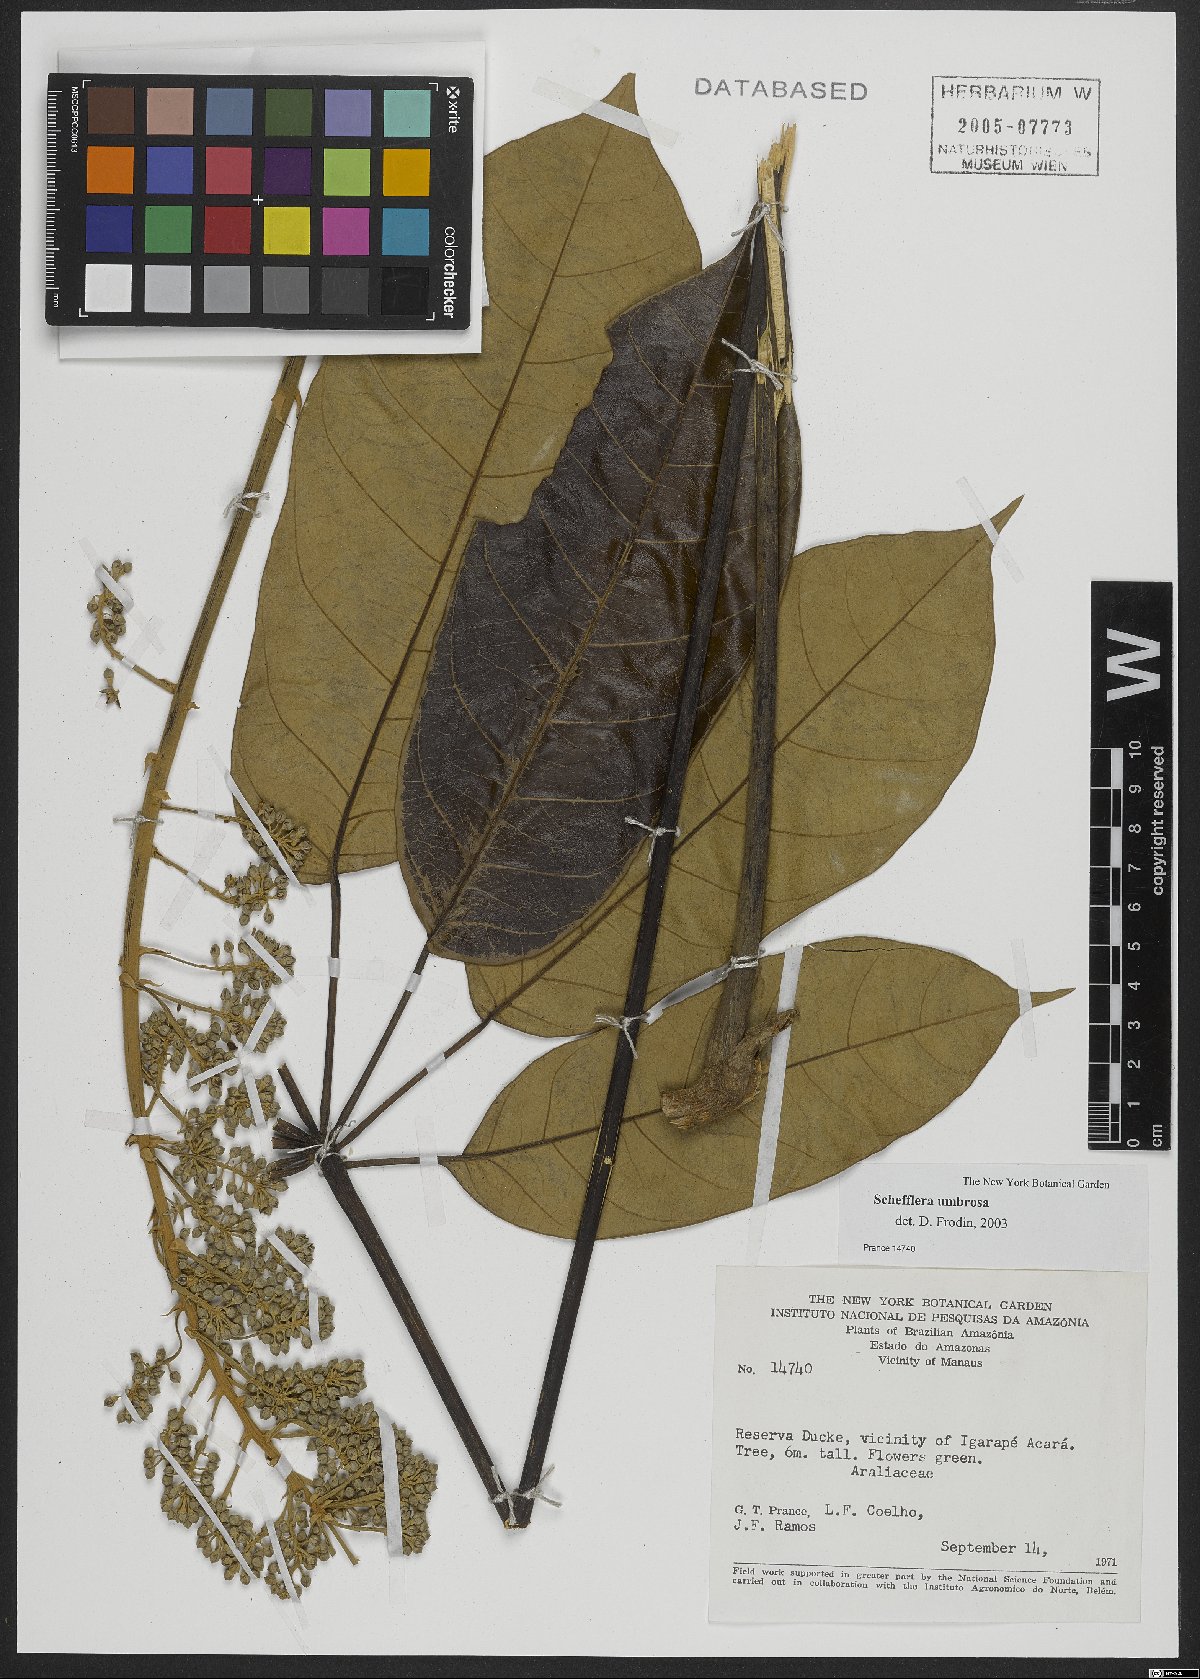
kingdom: Plantae
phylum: Tracheophyta
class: Magnoliopsida
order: Apiales
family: Araliaceae
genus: Didymopanax
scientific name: Didymopanax umbrosus
